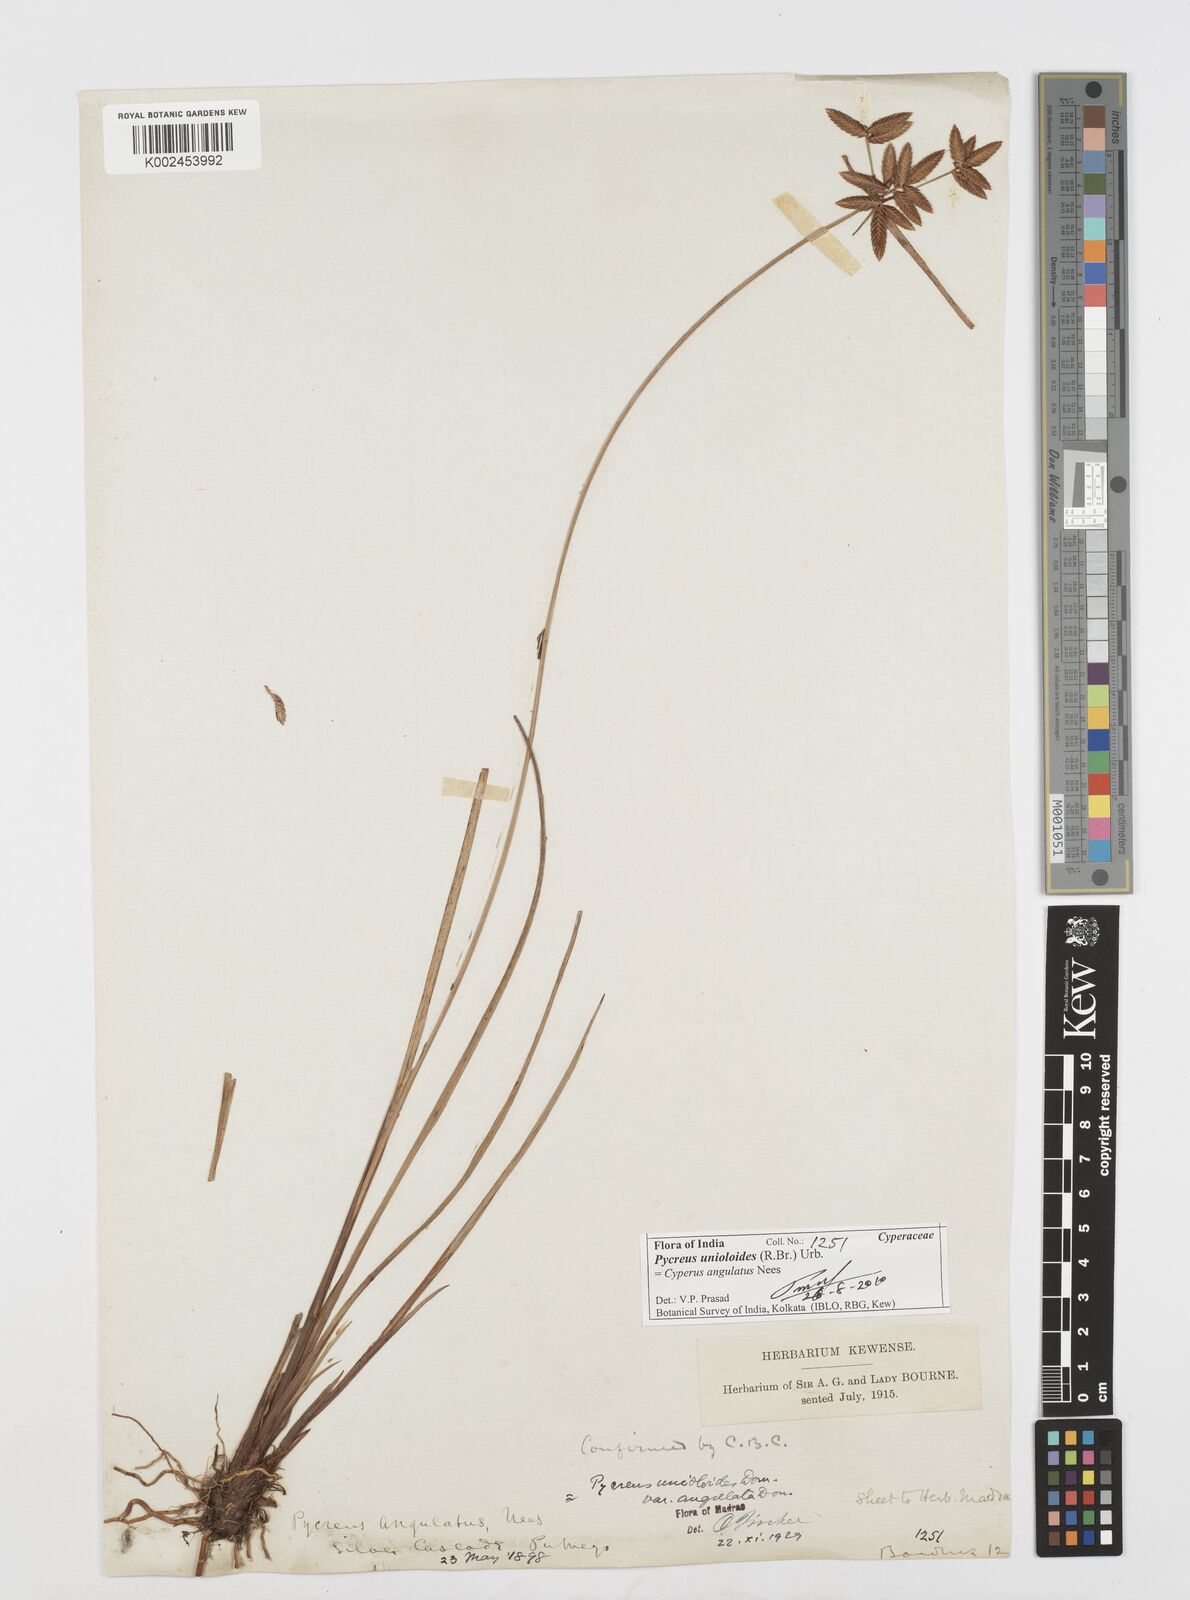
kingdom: Plantae
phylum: Tracheophyta
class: Liliopsida
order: Poales
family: Cyperaceae
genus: Cyperus
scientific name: Cyperus unioloides
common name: Uniola flatsedge
